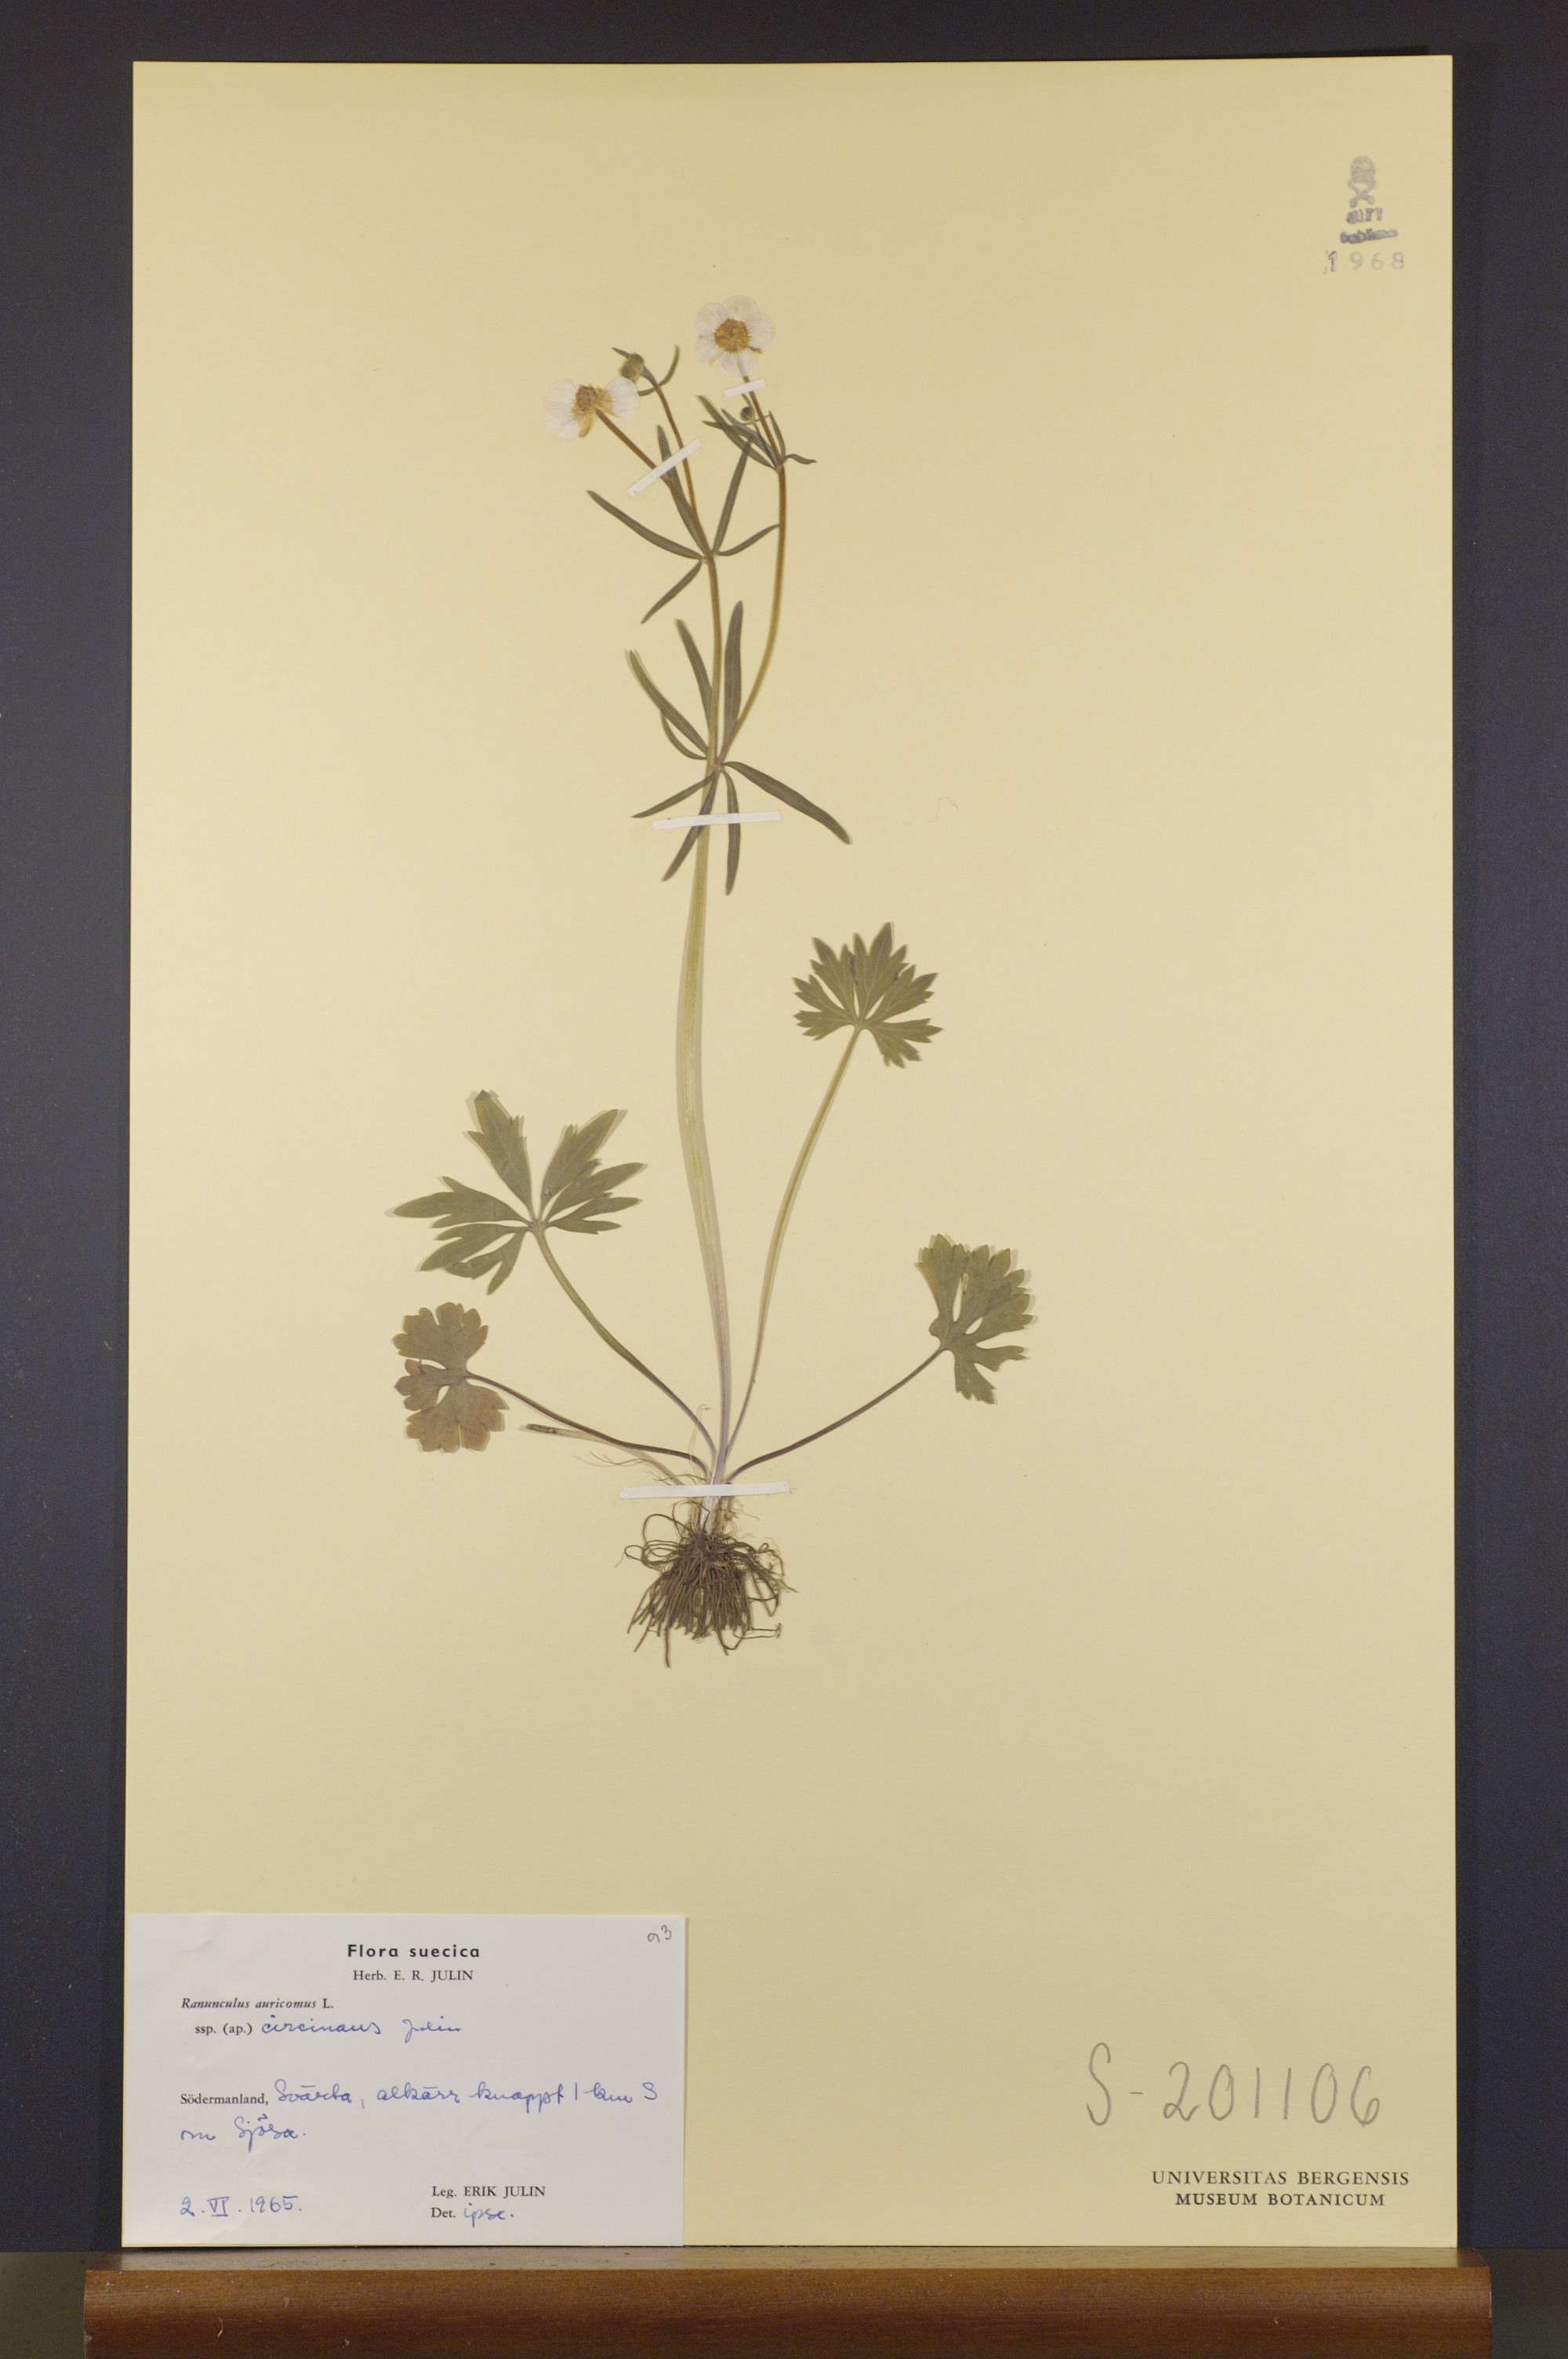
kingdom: Plantae
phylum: Tracheophyta
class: Magnoliopsida
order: Ranunculales
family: Ranunculaceae
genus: Ranunculus
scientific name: Ranunculus circinans
